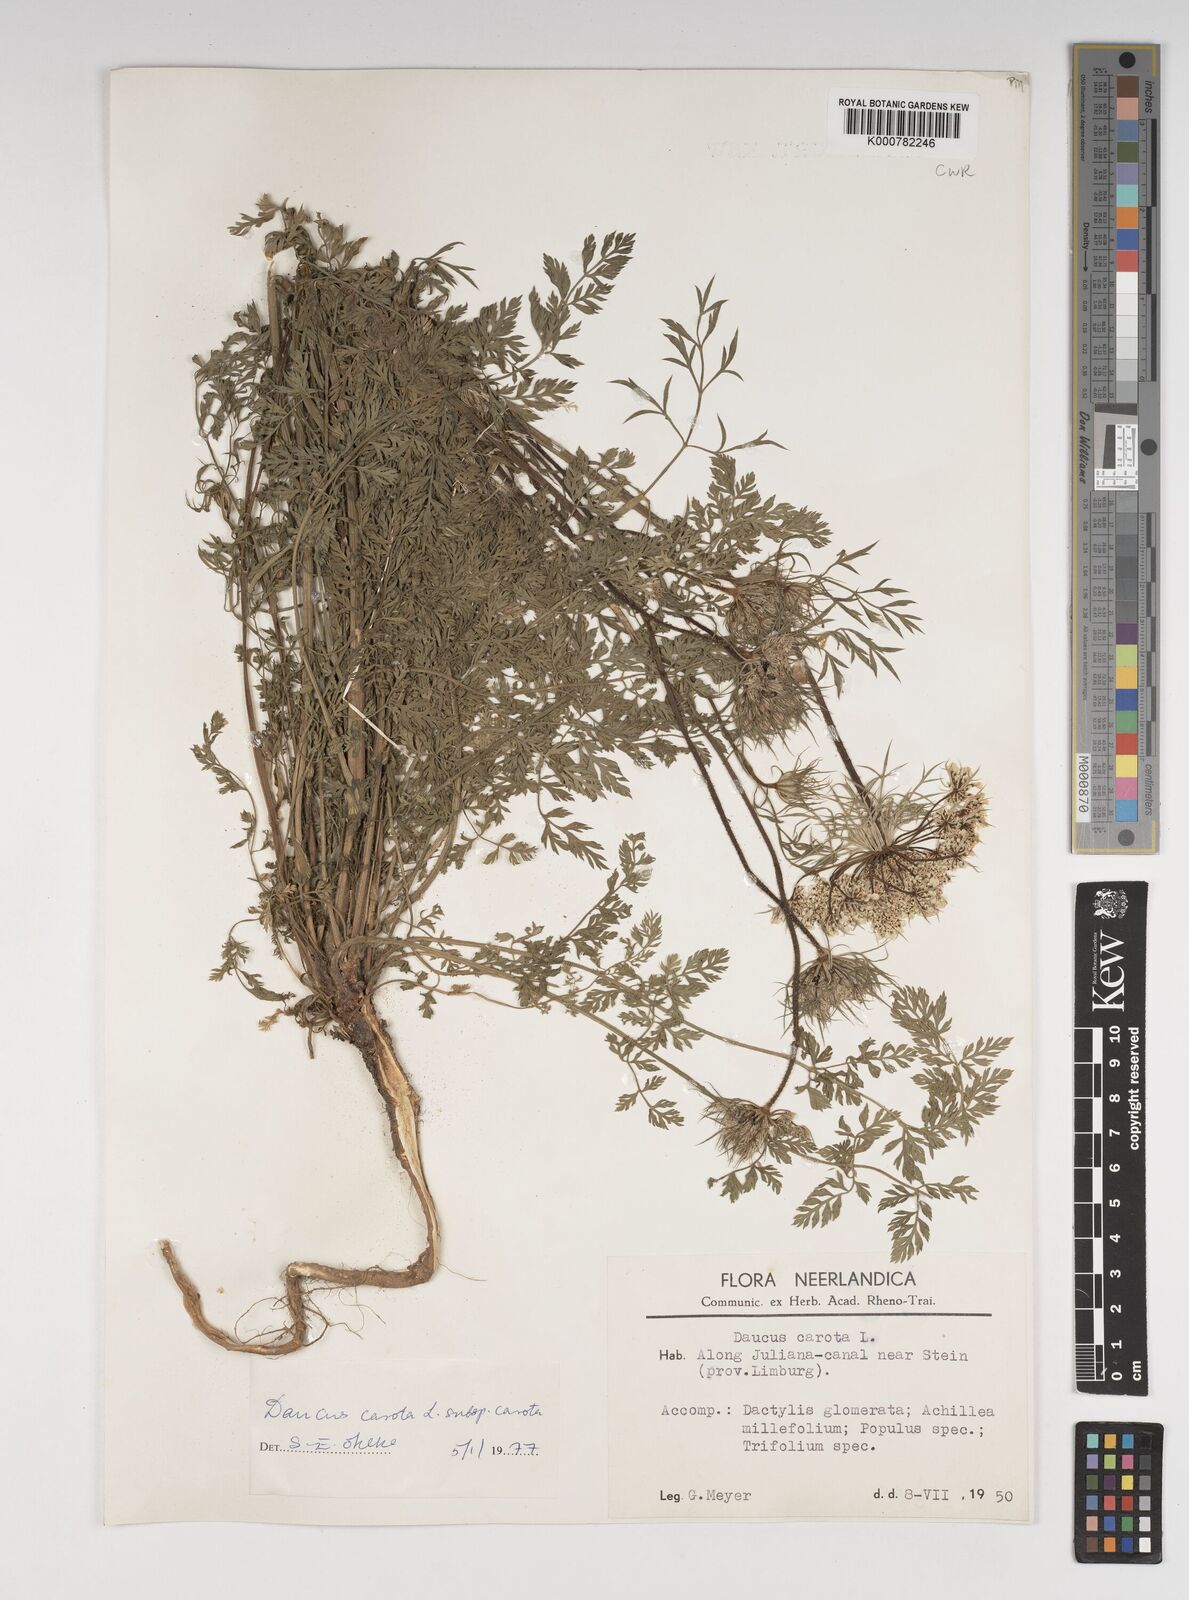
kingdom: Plantae
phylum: Tracheophyta
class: Magnoliopsida
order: Apiales
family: Apiaceae
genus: Daucus
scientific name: Daucus carota
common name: Wild carrot
